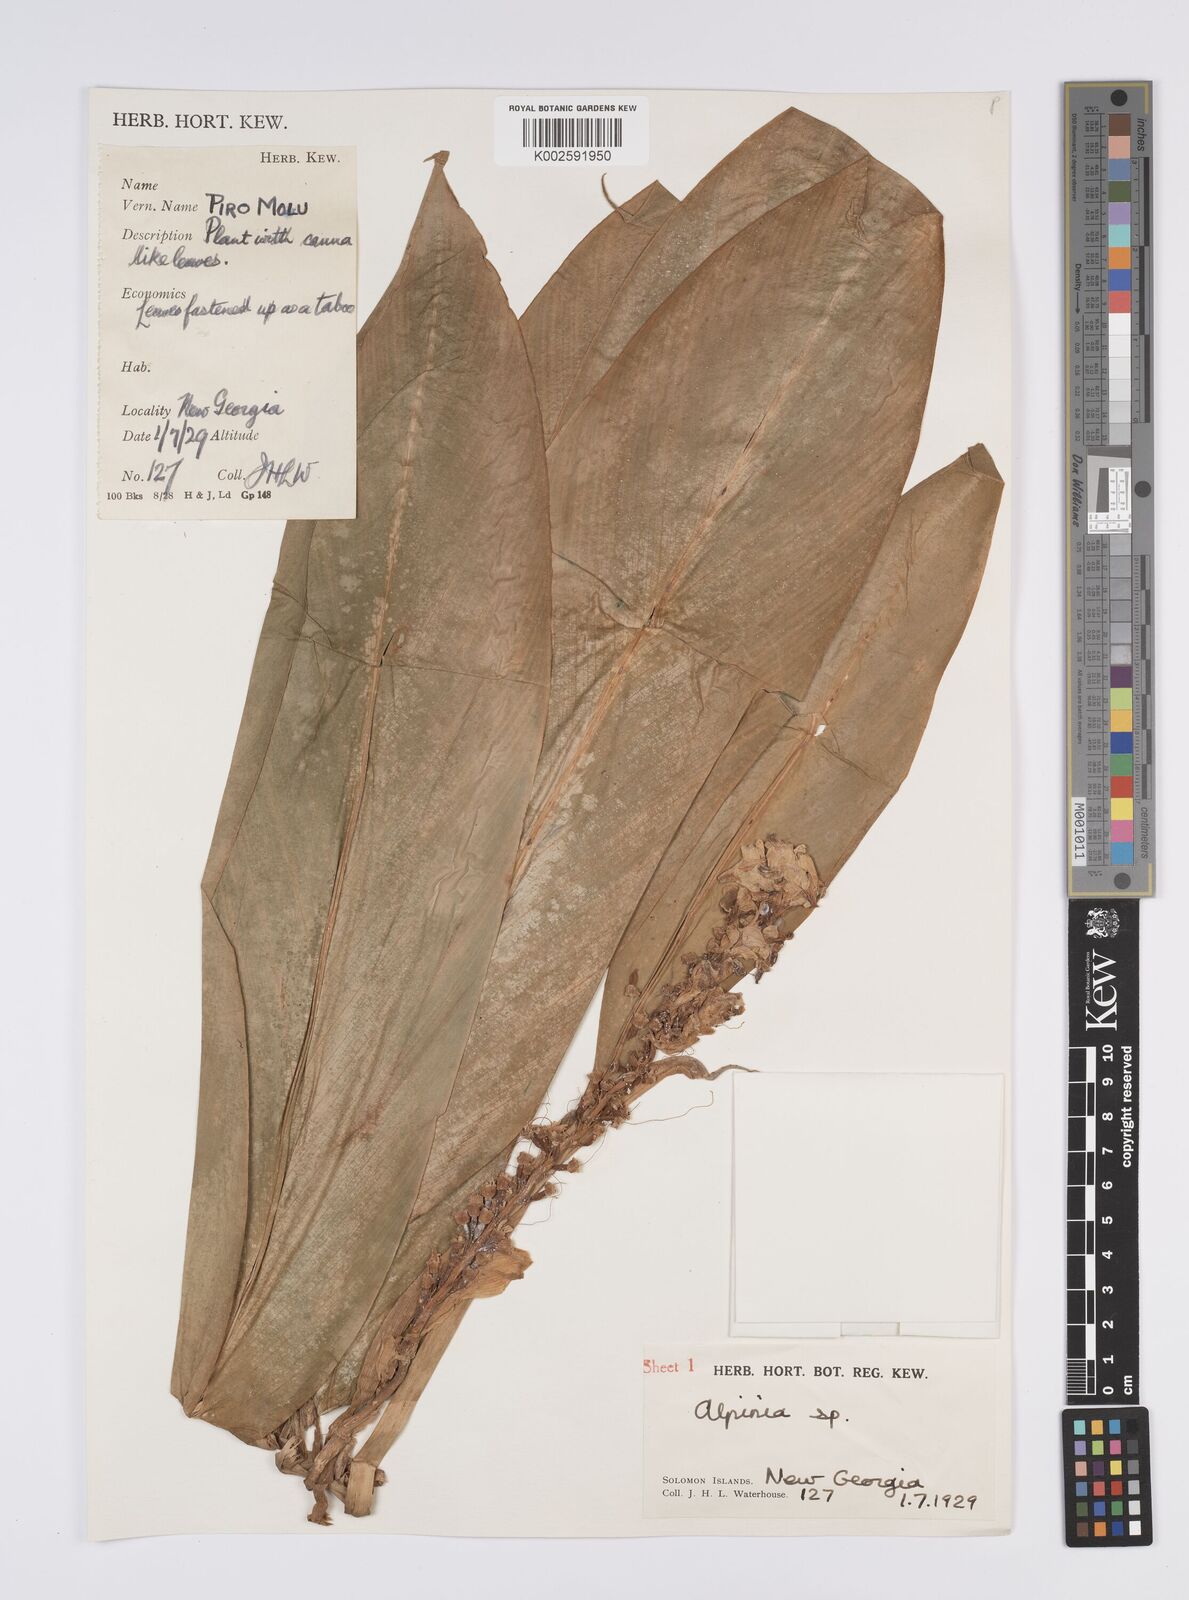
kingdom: Plantae
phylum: Tracheophyta
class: Liliopsida
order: Zingiberales
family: Zingiberaceae
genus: Alpinia
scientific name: Alpinia
